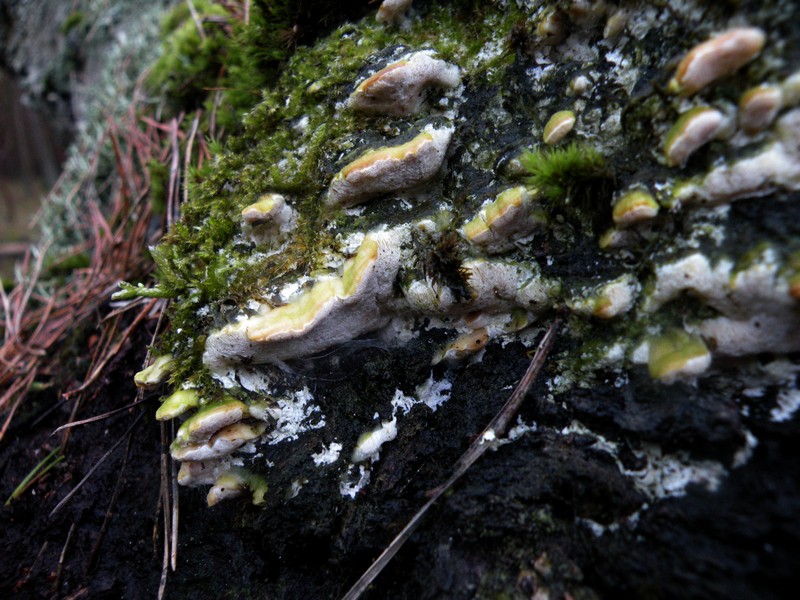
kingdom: Fungi
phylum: Basidiomycota
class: Agaricomycetes
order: Hymenochaetales
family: Oxyporaceae
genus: Oxyporus
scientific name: Oxyporus populinus
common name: sammenvokset trylleporesvamp
